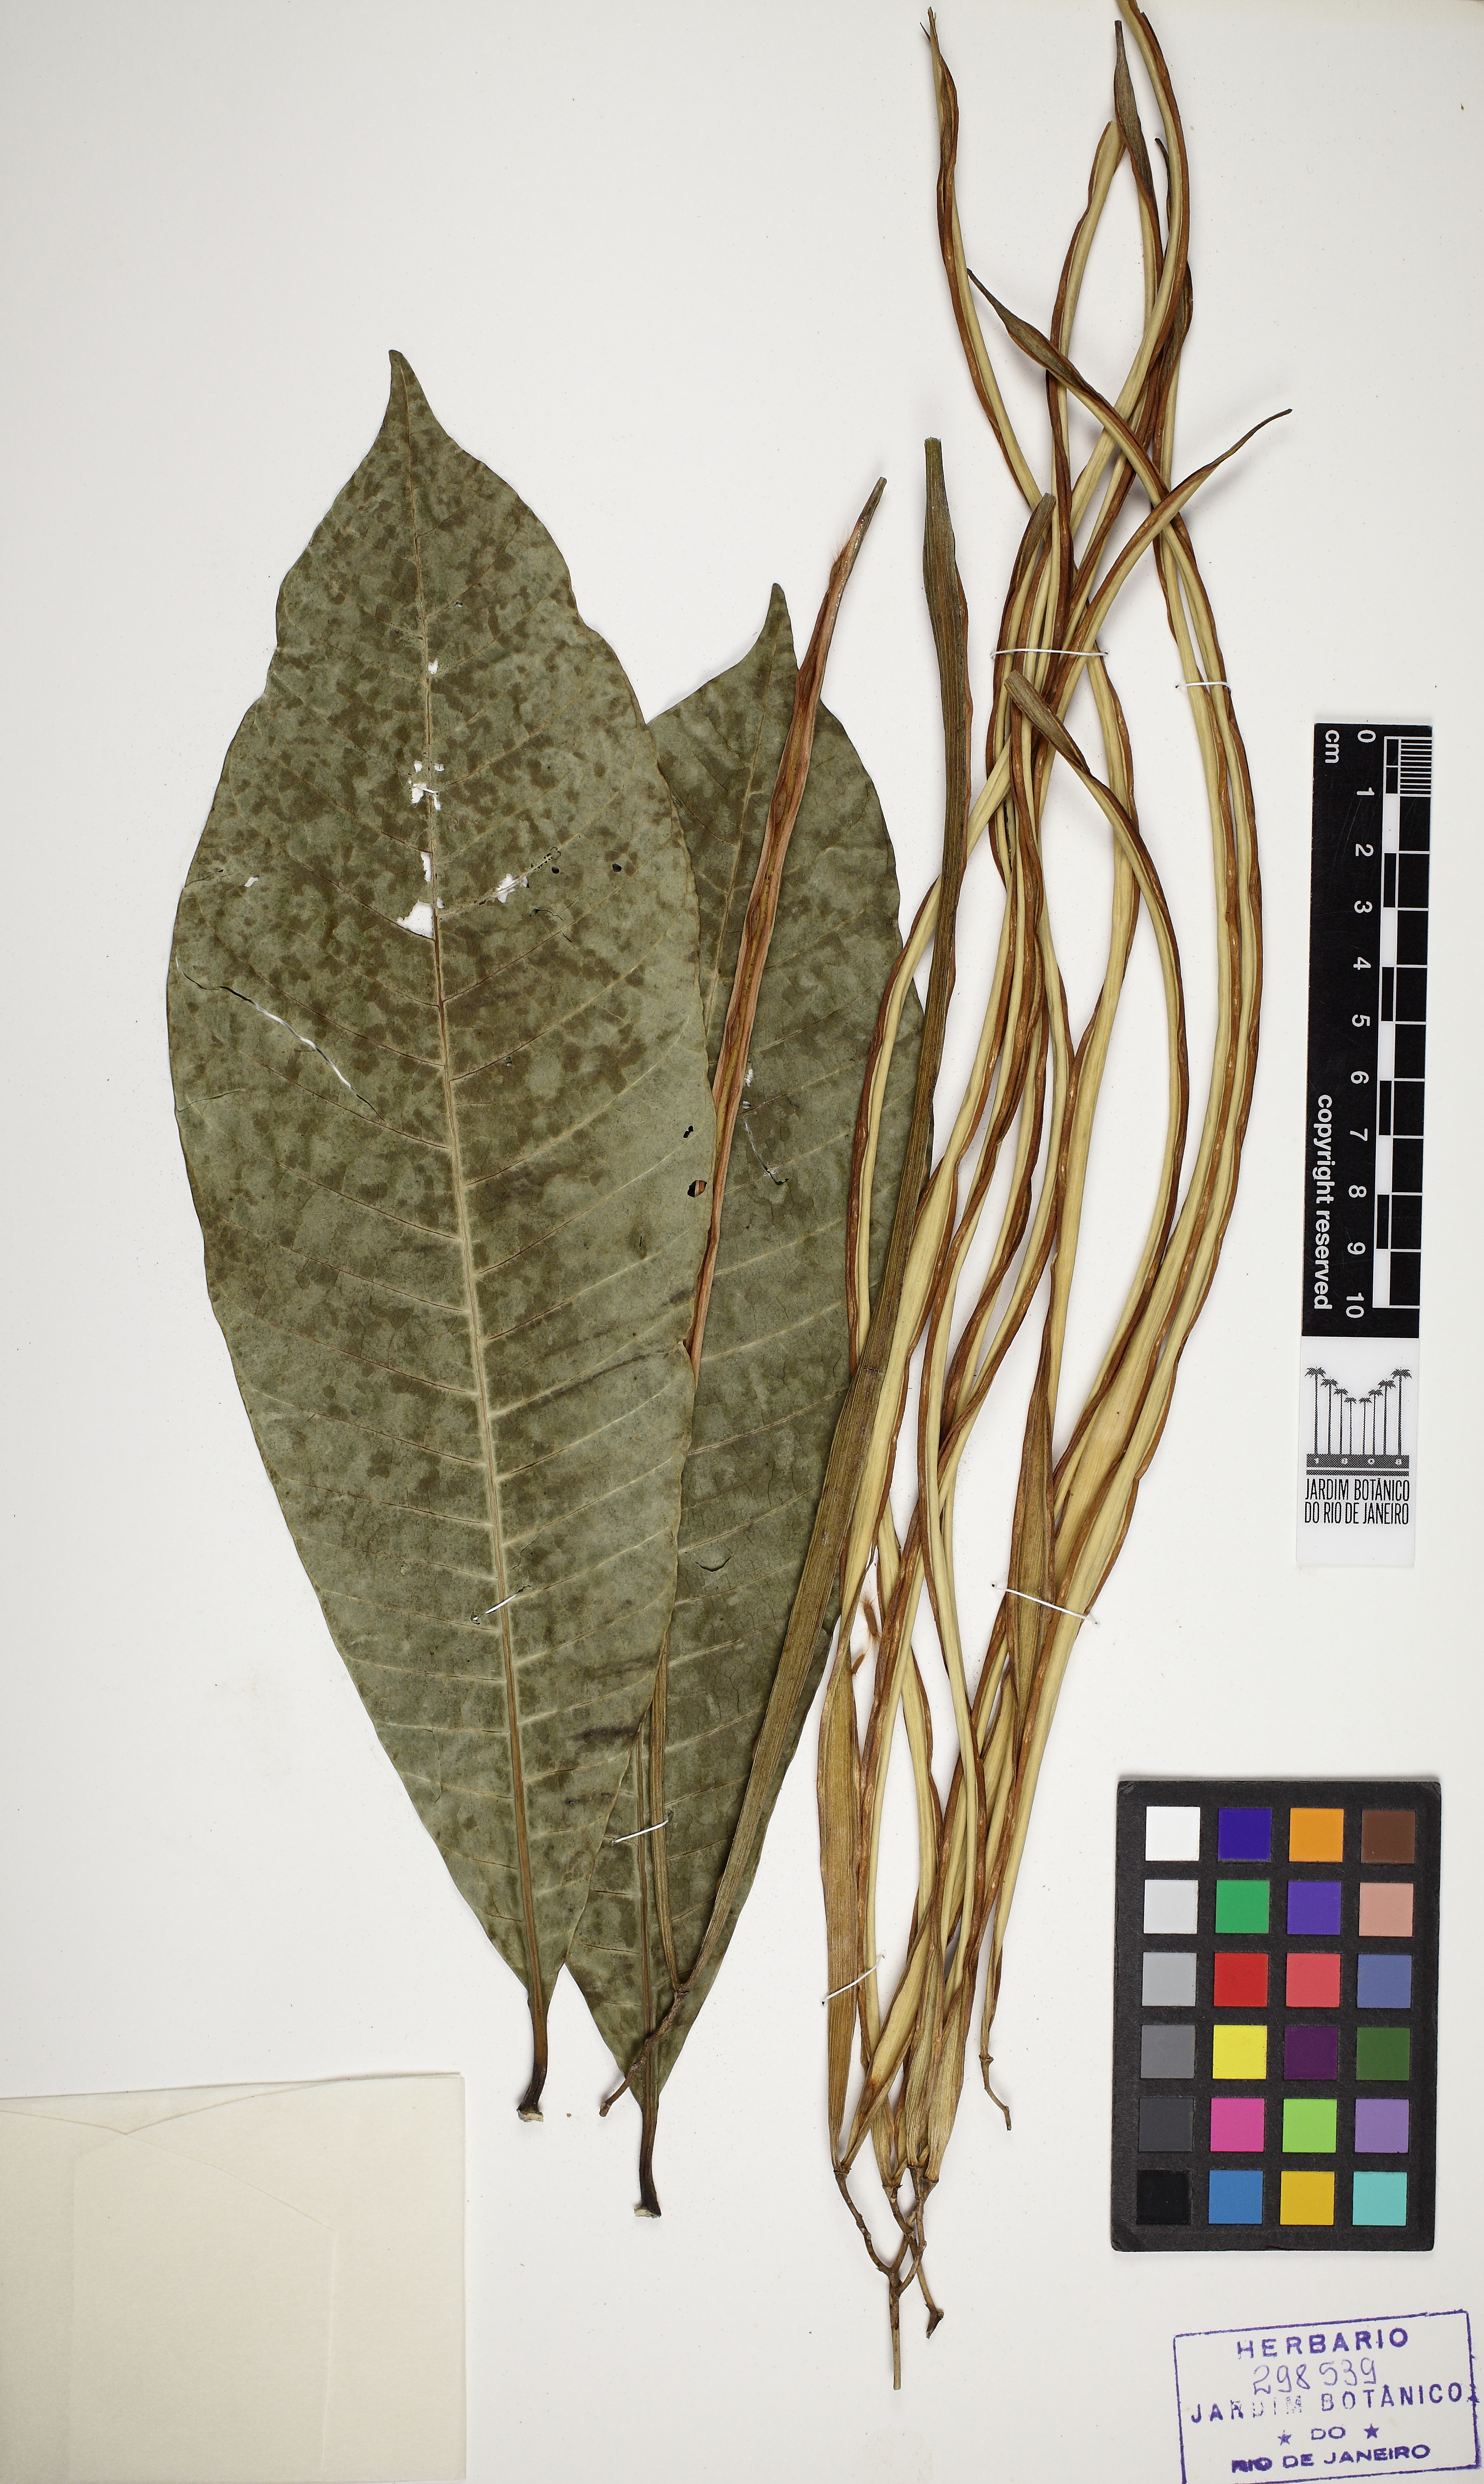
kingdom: Plantae
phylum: Tracheophyta
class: Magnoliopsida
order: Gentianales
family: Apocynaceae
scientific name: Apocynaceae
